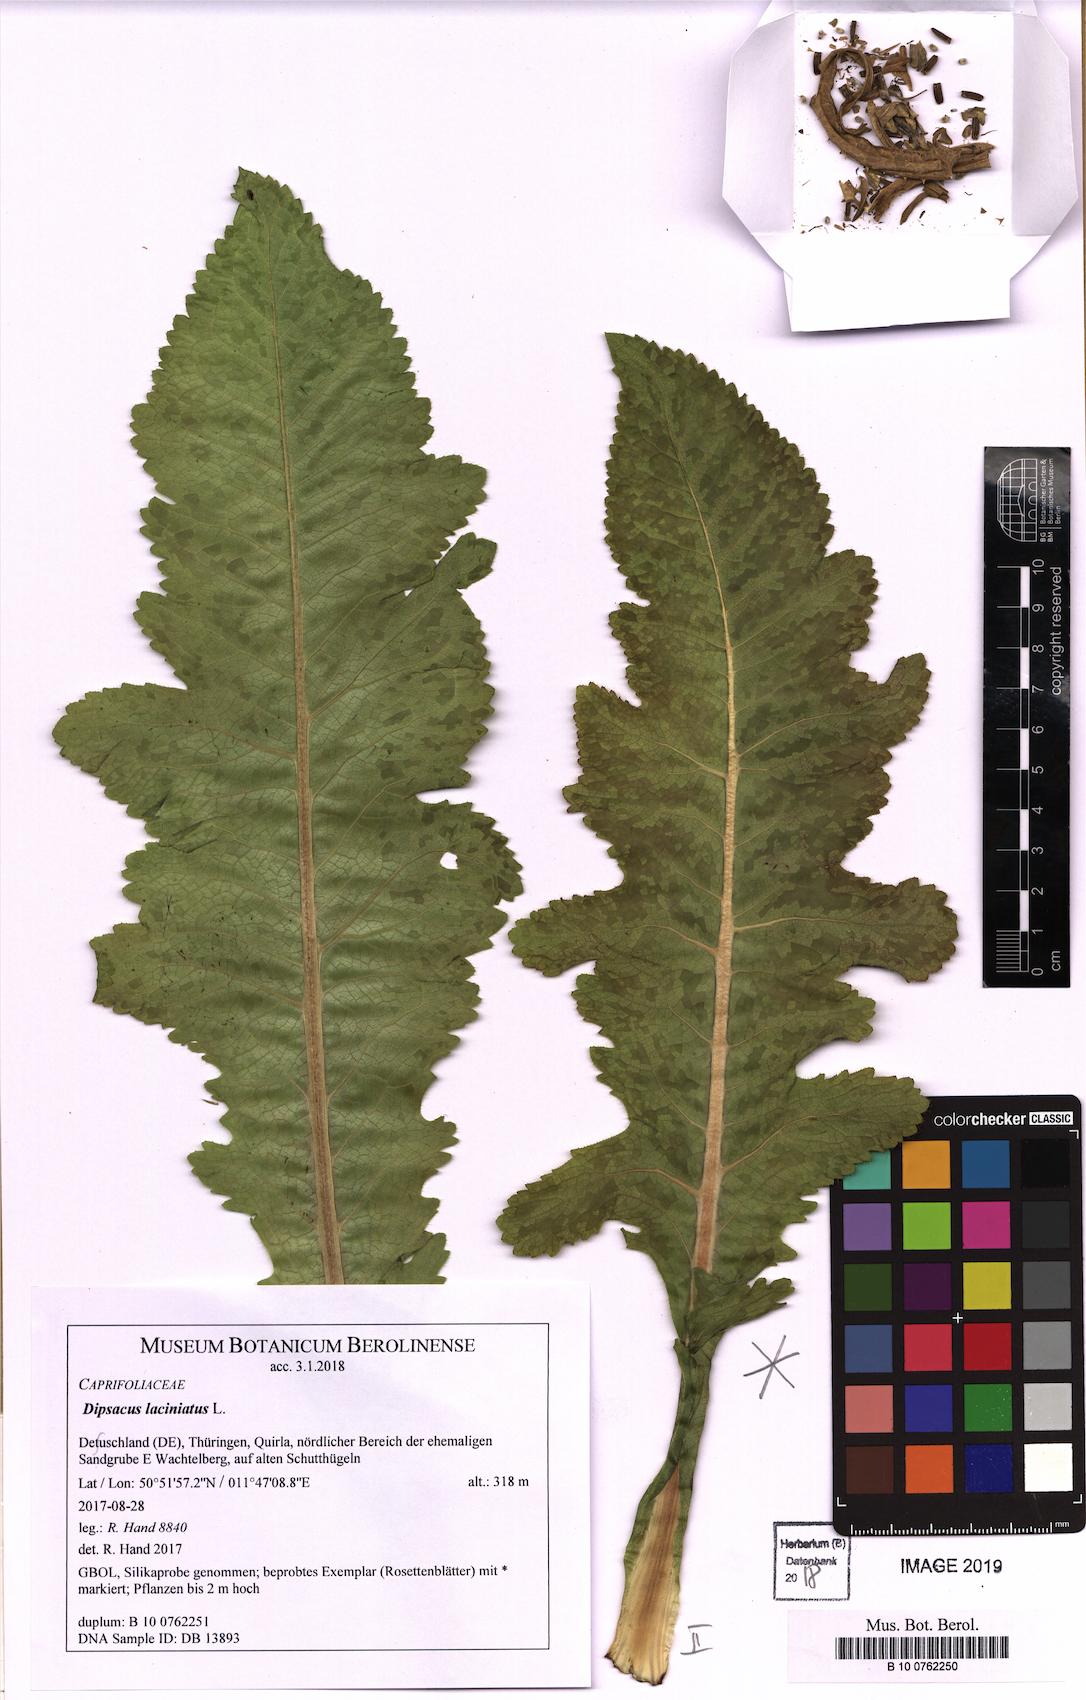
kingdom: Plantae
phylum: Tracheophyta
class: Magnoliopsida
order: Dipsacales
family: Caprifoliaceae
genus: Dipsacus
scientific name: Dipsacus laciniatus
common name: Cut-leaved teasel
